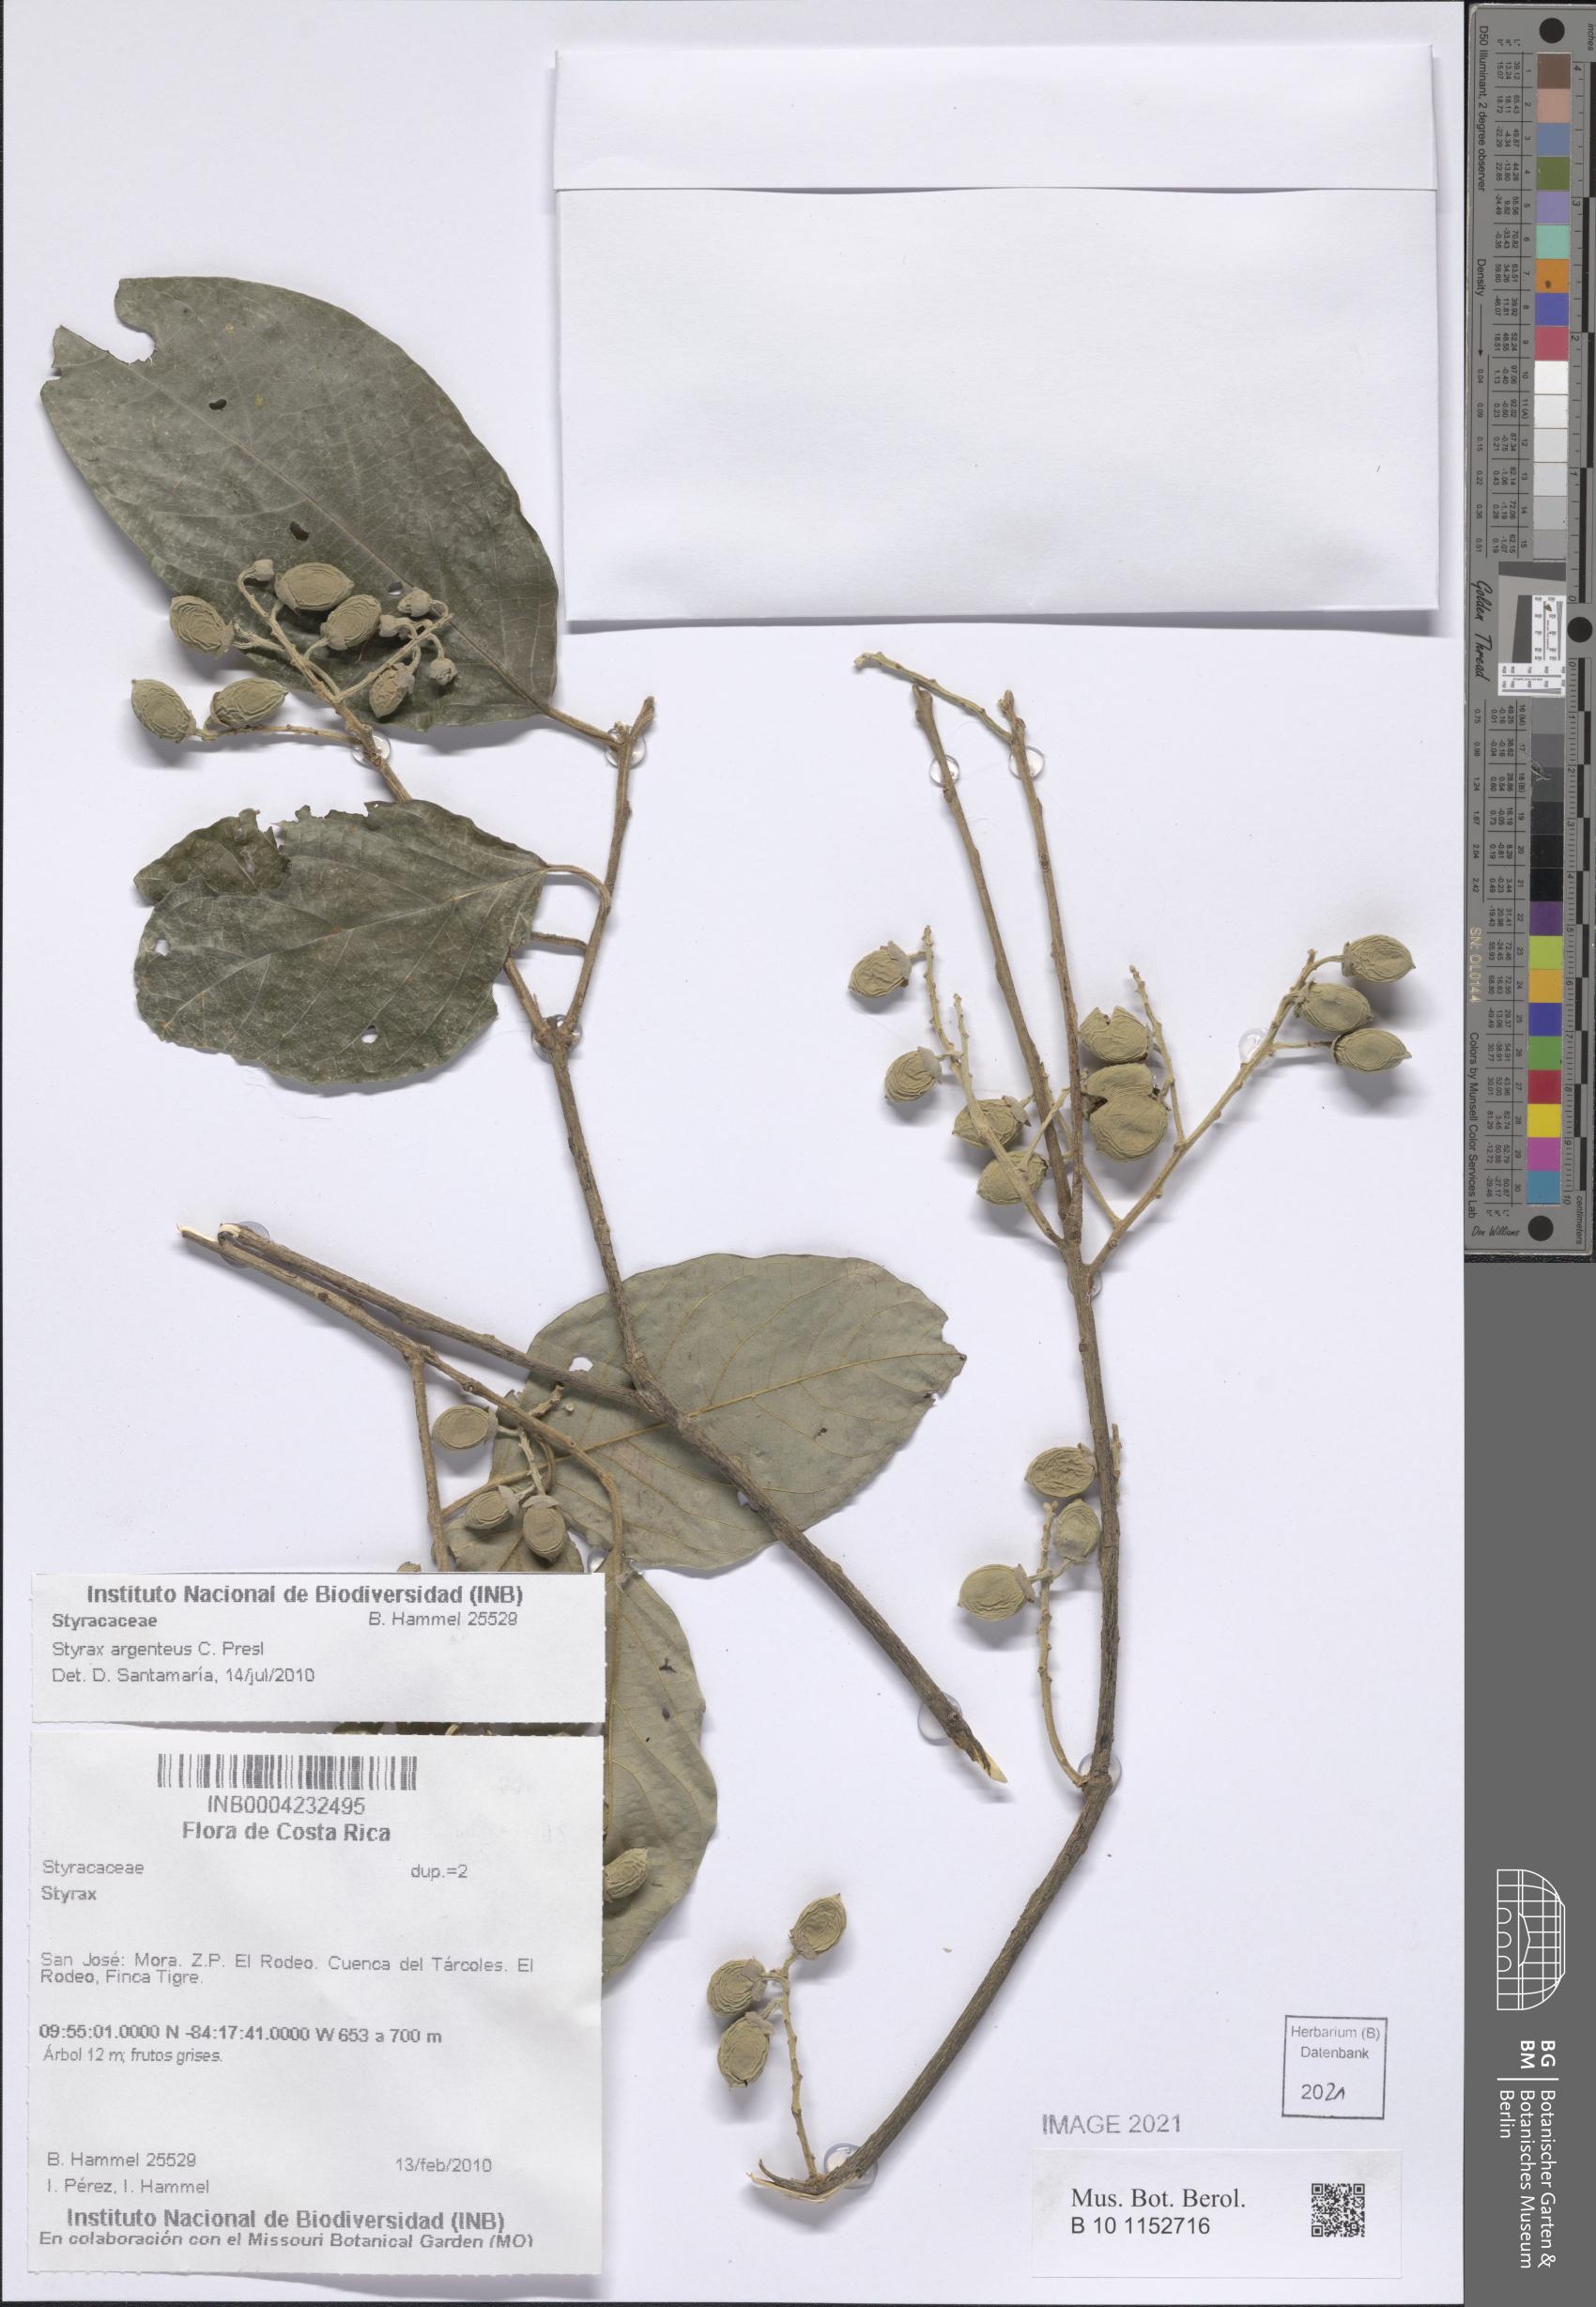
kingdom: Plantae
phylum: Tracheophyta
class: Magnoliopsida
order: Ericales
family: Styracaceae
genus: Styrax
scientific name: Styrax argenteus
